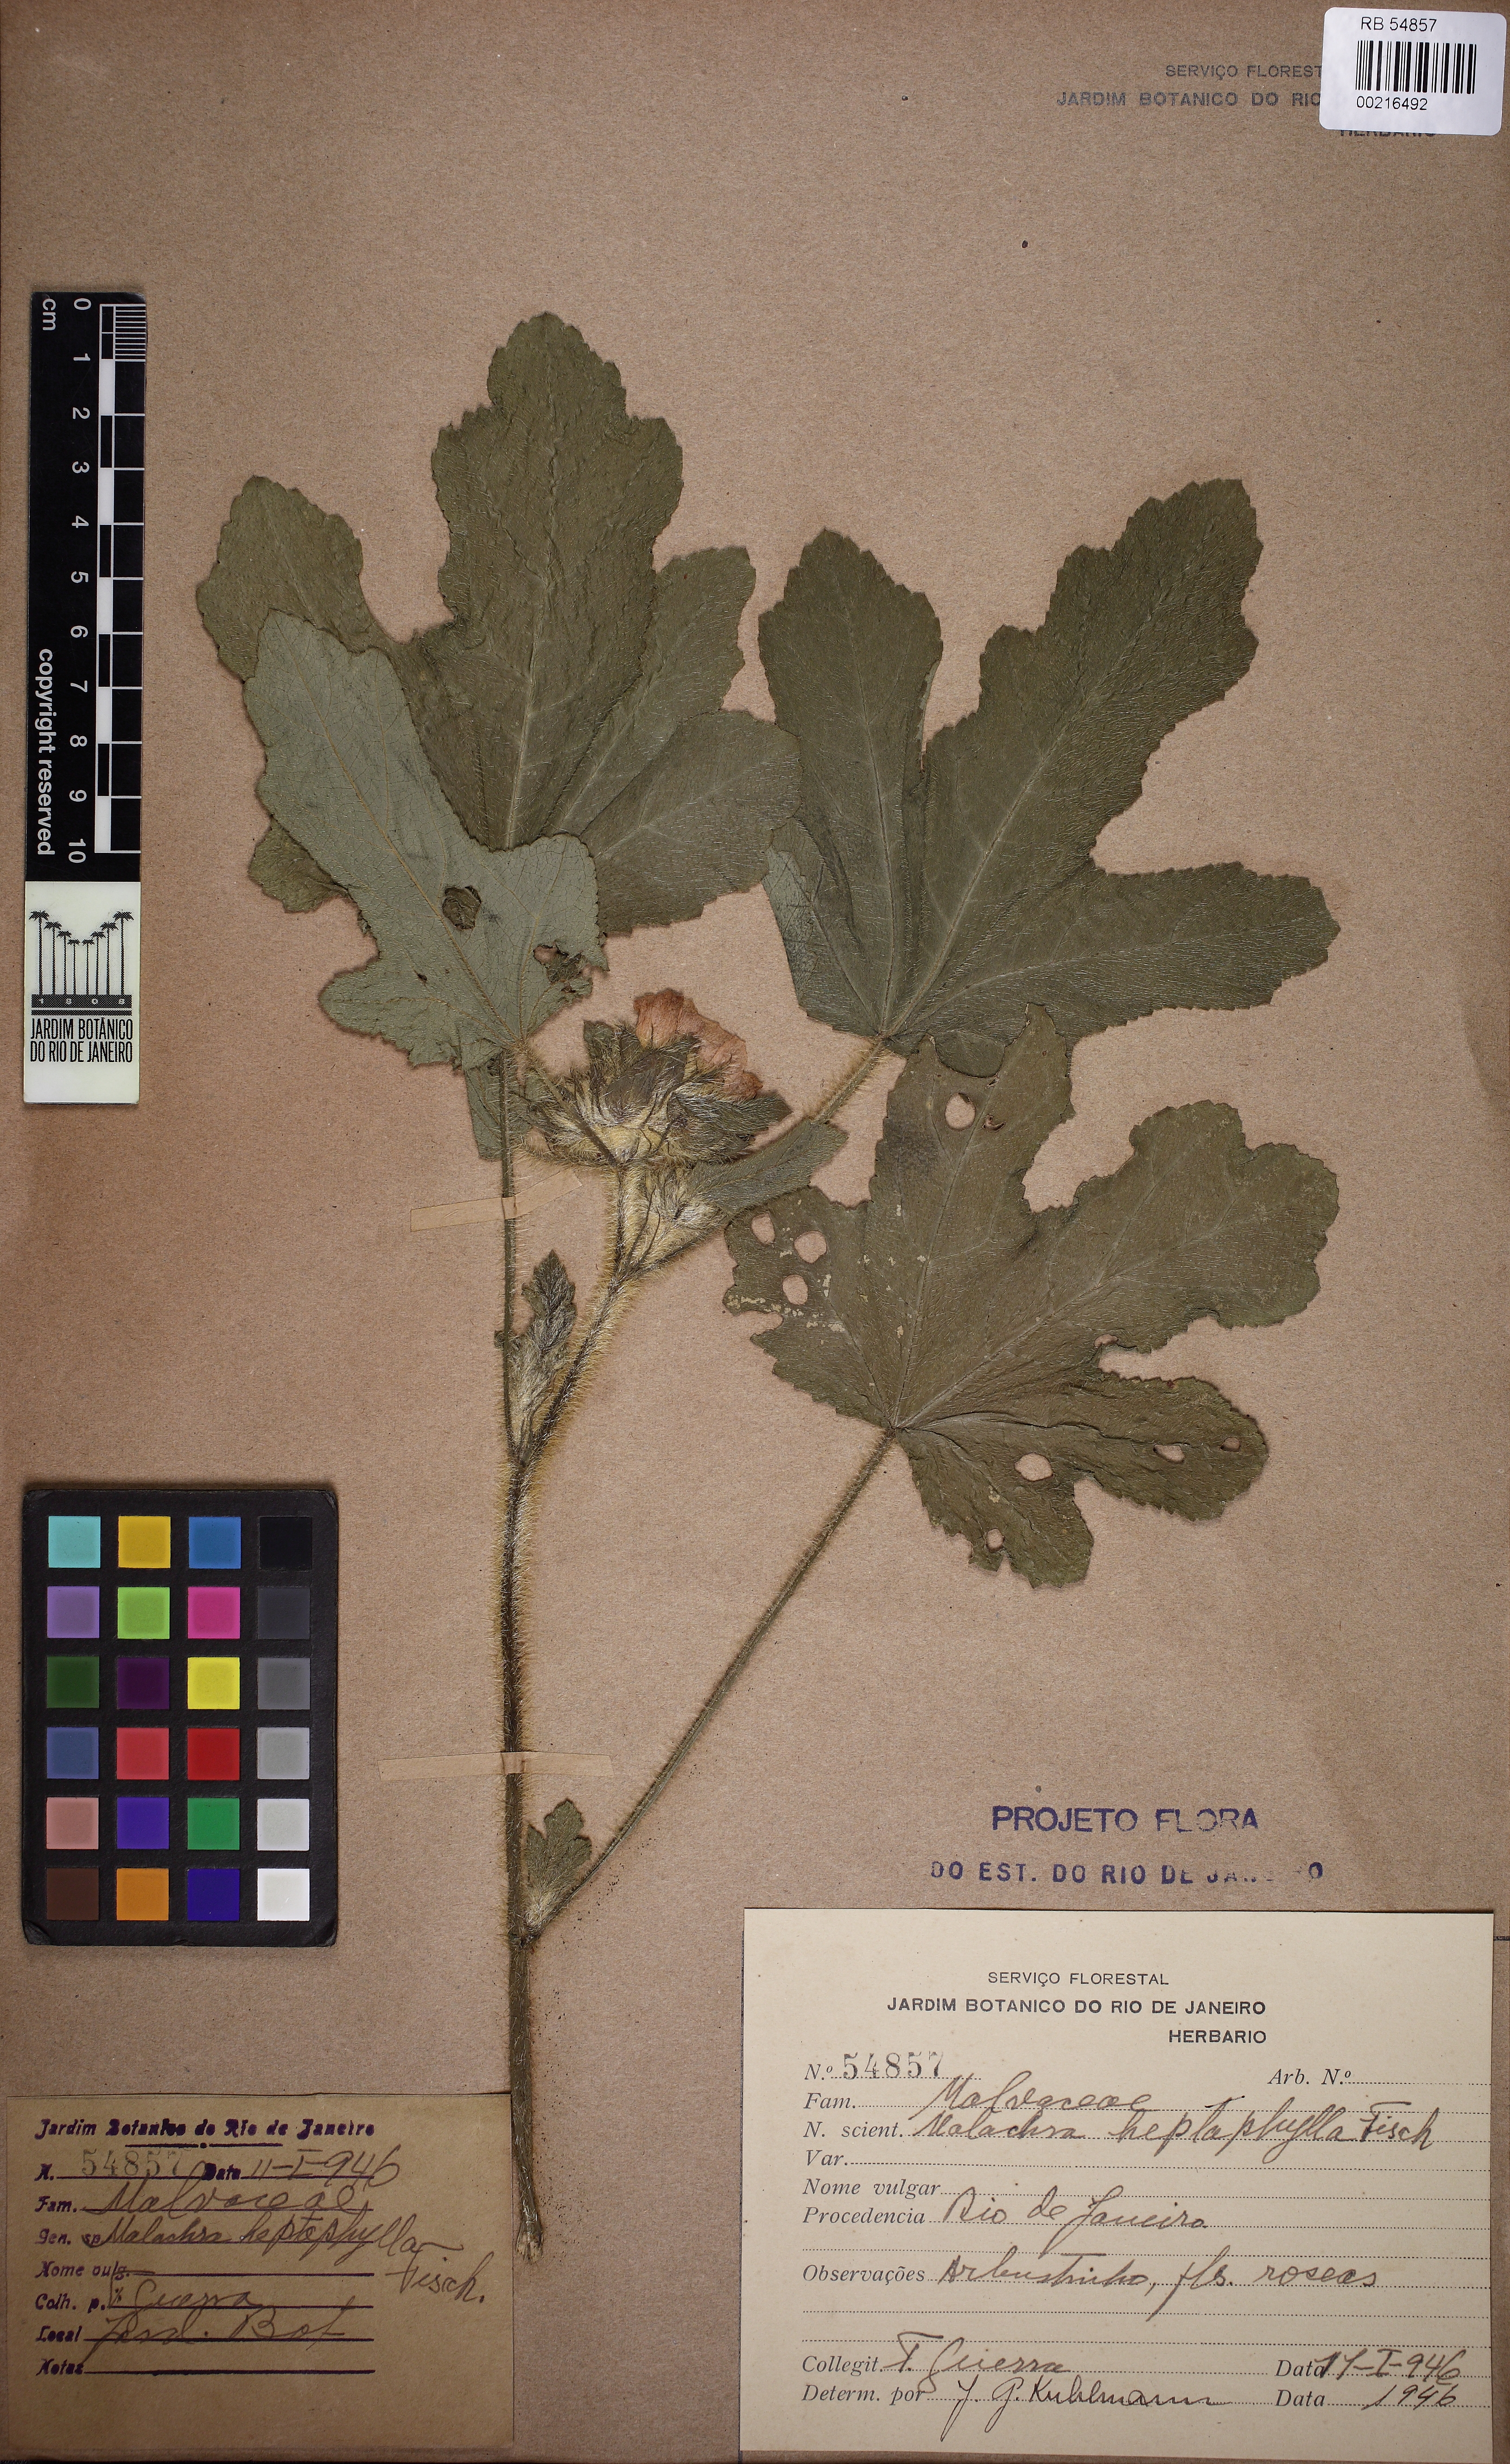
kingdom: Plantae
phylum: Tracheophyta
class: Magnoliopsida
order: Malvales
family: Malvaceae
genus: Malachra
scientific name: Malachra capitata
